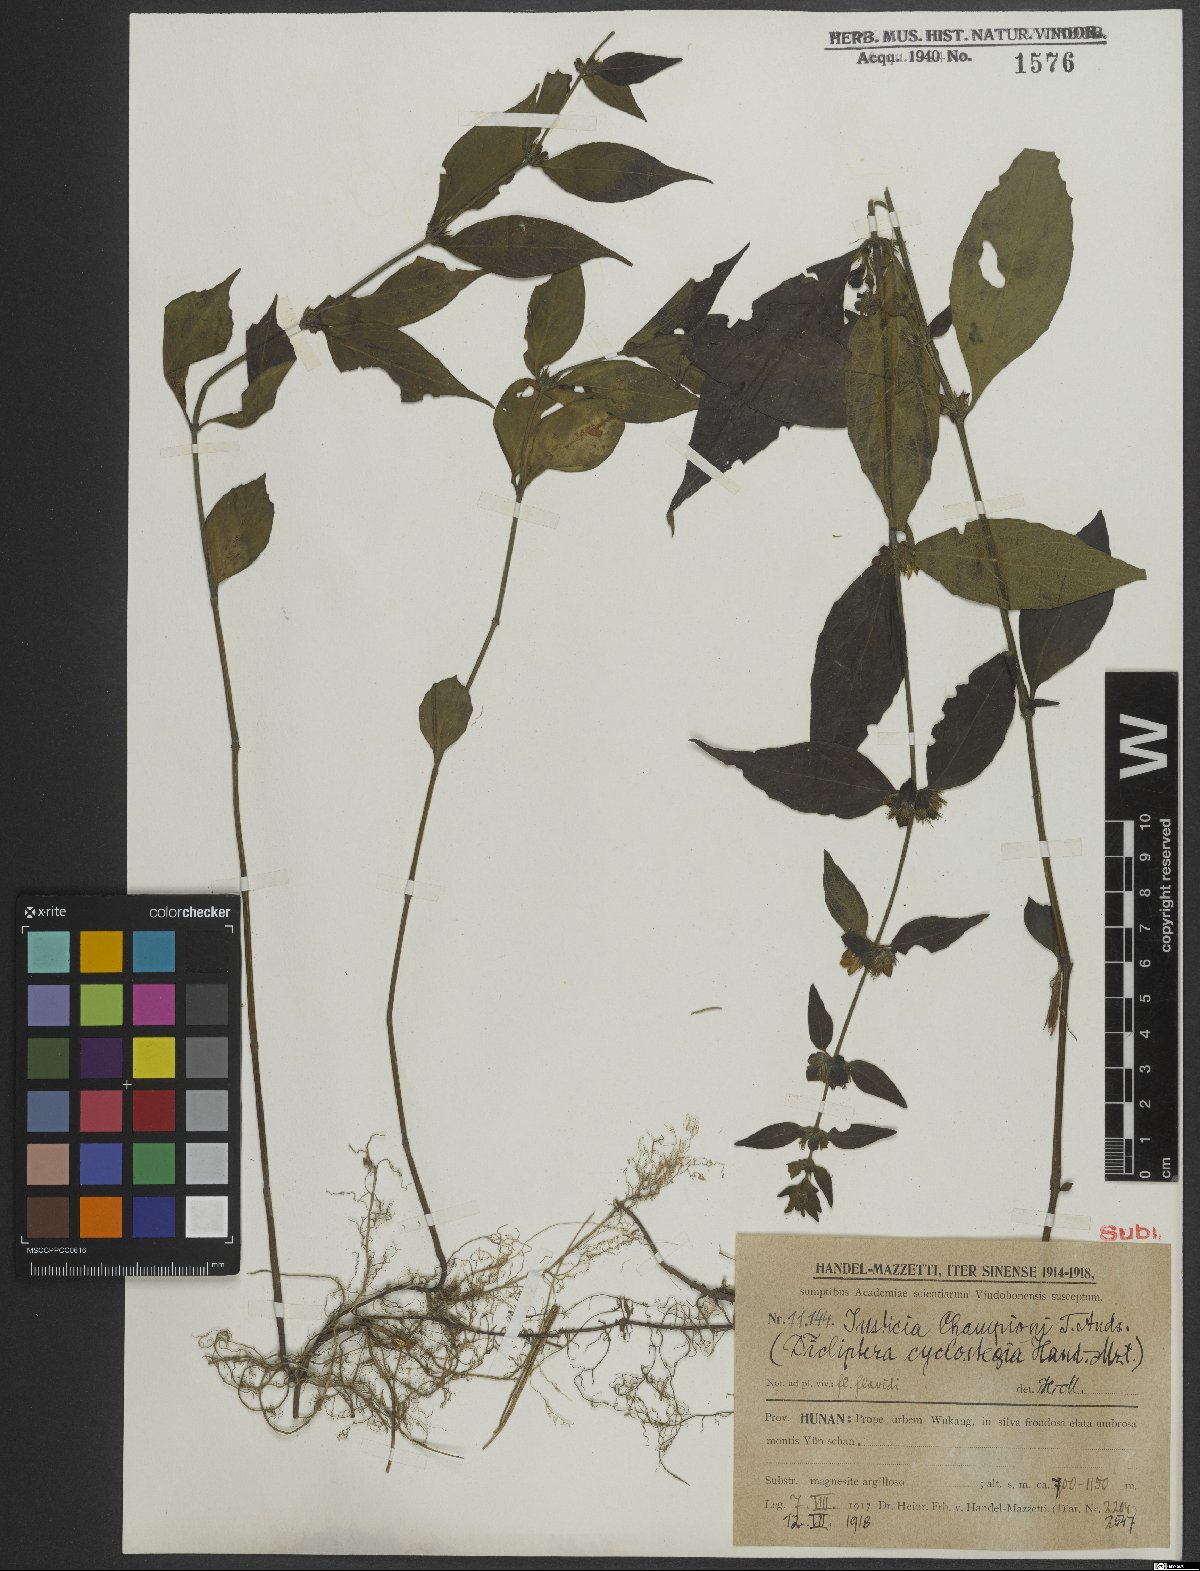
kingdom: Plantae
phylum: Tracheophyta
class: Magnoliopsida
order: Lamiales
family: Acanthaceae
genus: Justicia
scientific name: Justicia championii
